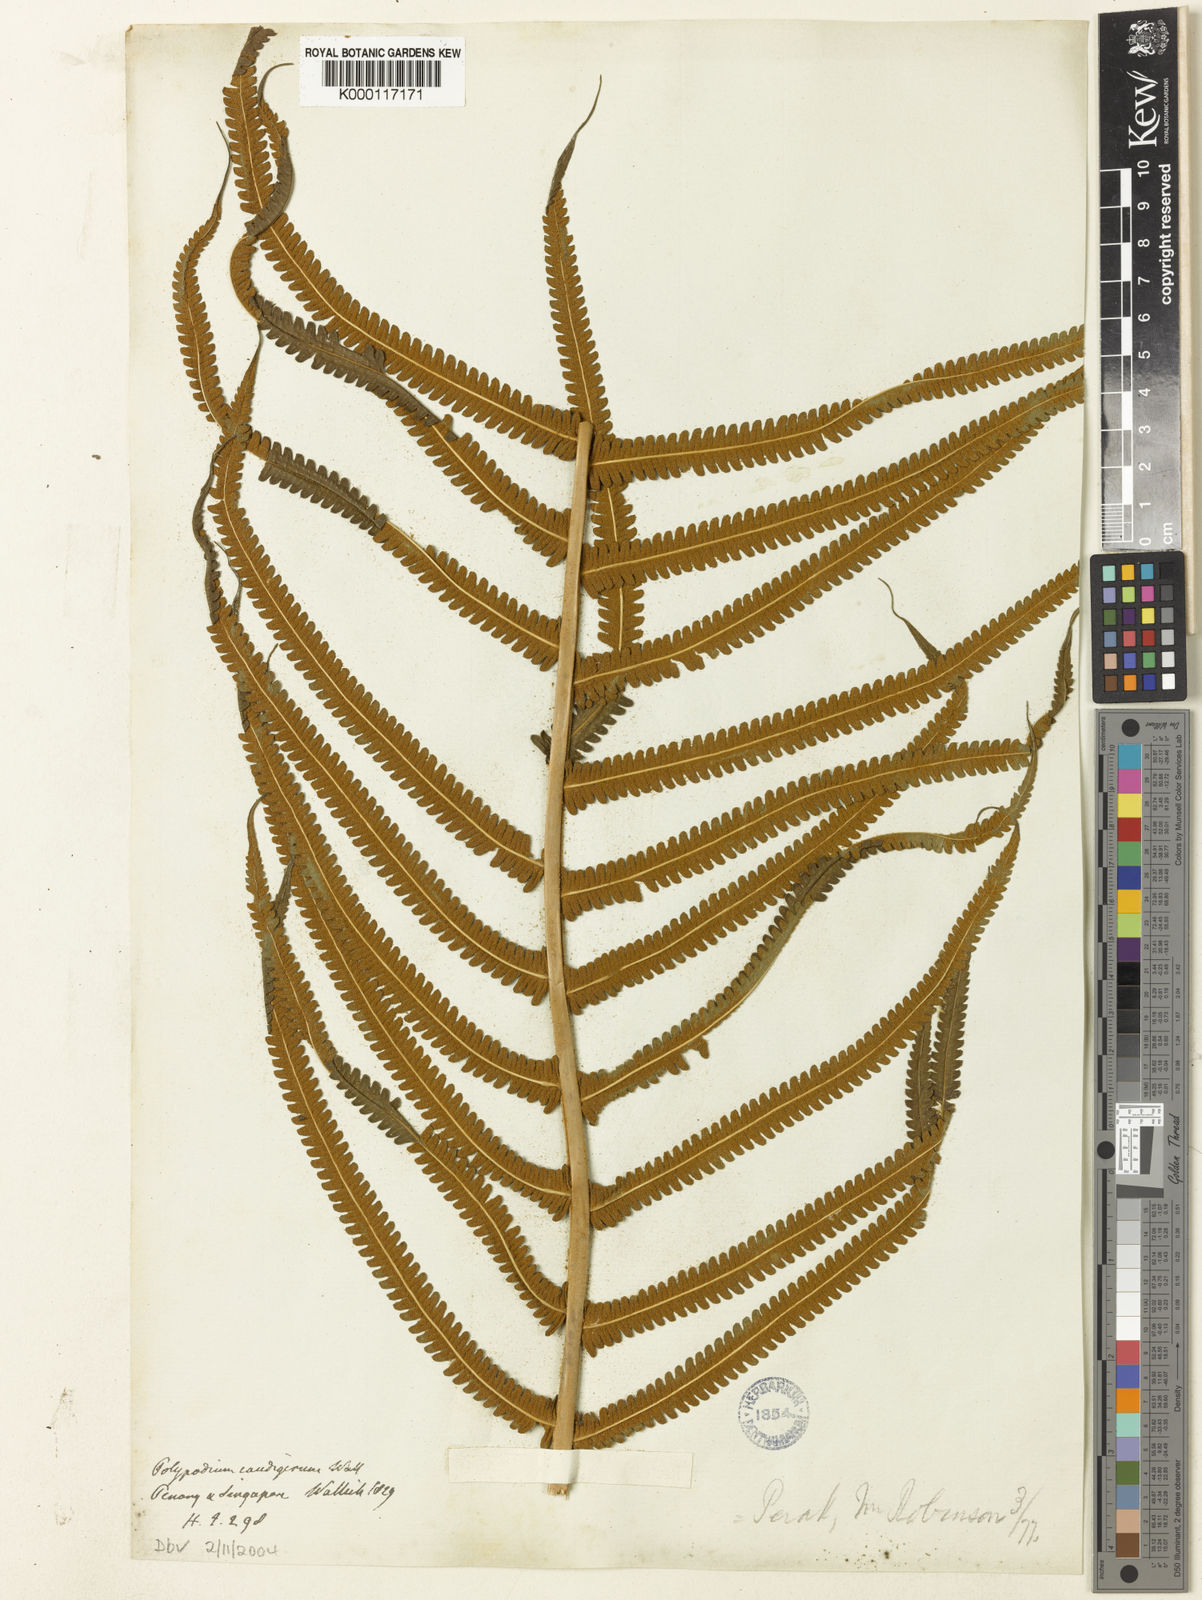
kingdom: Plantae
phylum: Tracheophyta
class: Polypodiopsida
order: Polypodiales
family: Thelypteridaceae
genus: Sphaerostephanos
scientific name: Sphaerostephanos polycarpos
